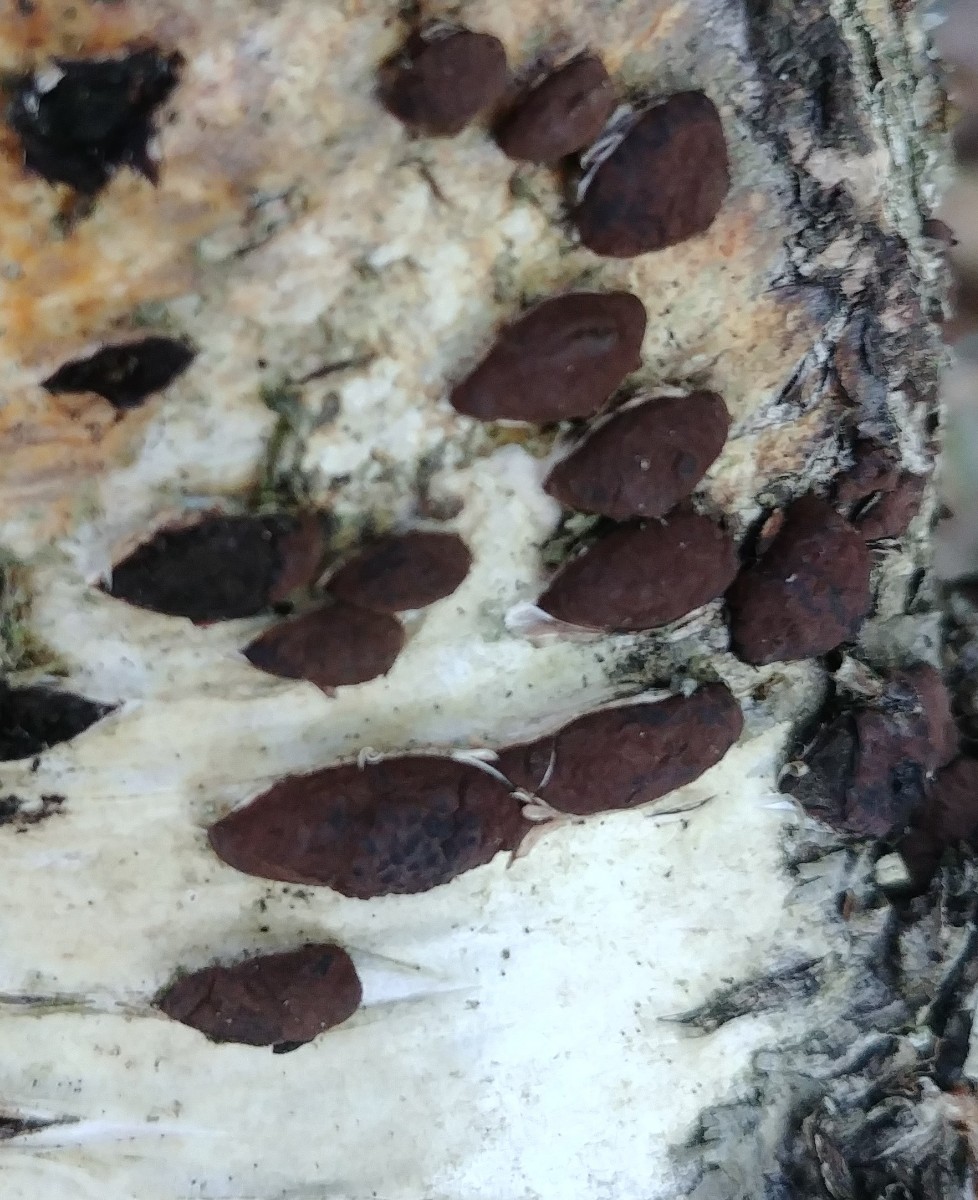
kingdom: Fungi
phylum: Ascomycota
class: Sordariomycetes
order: Xylariales
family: Hypoxylaceae
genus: Jackrogersella
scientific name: Jackrogersella multiformis
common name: foranderlig kulbær
